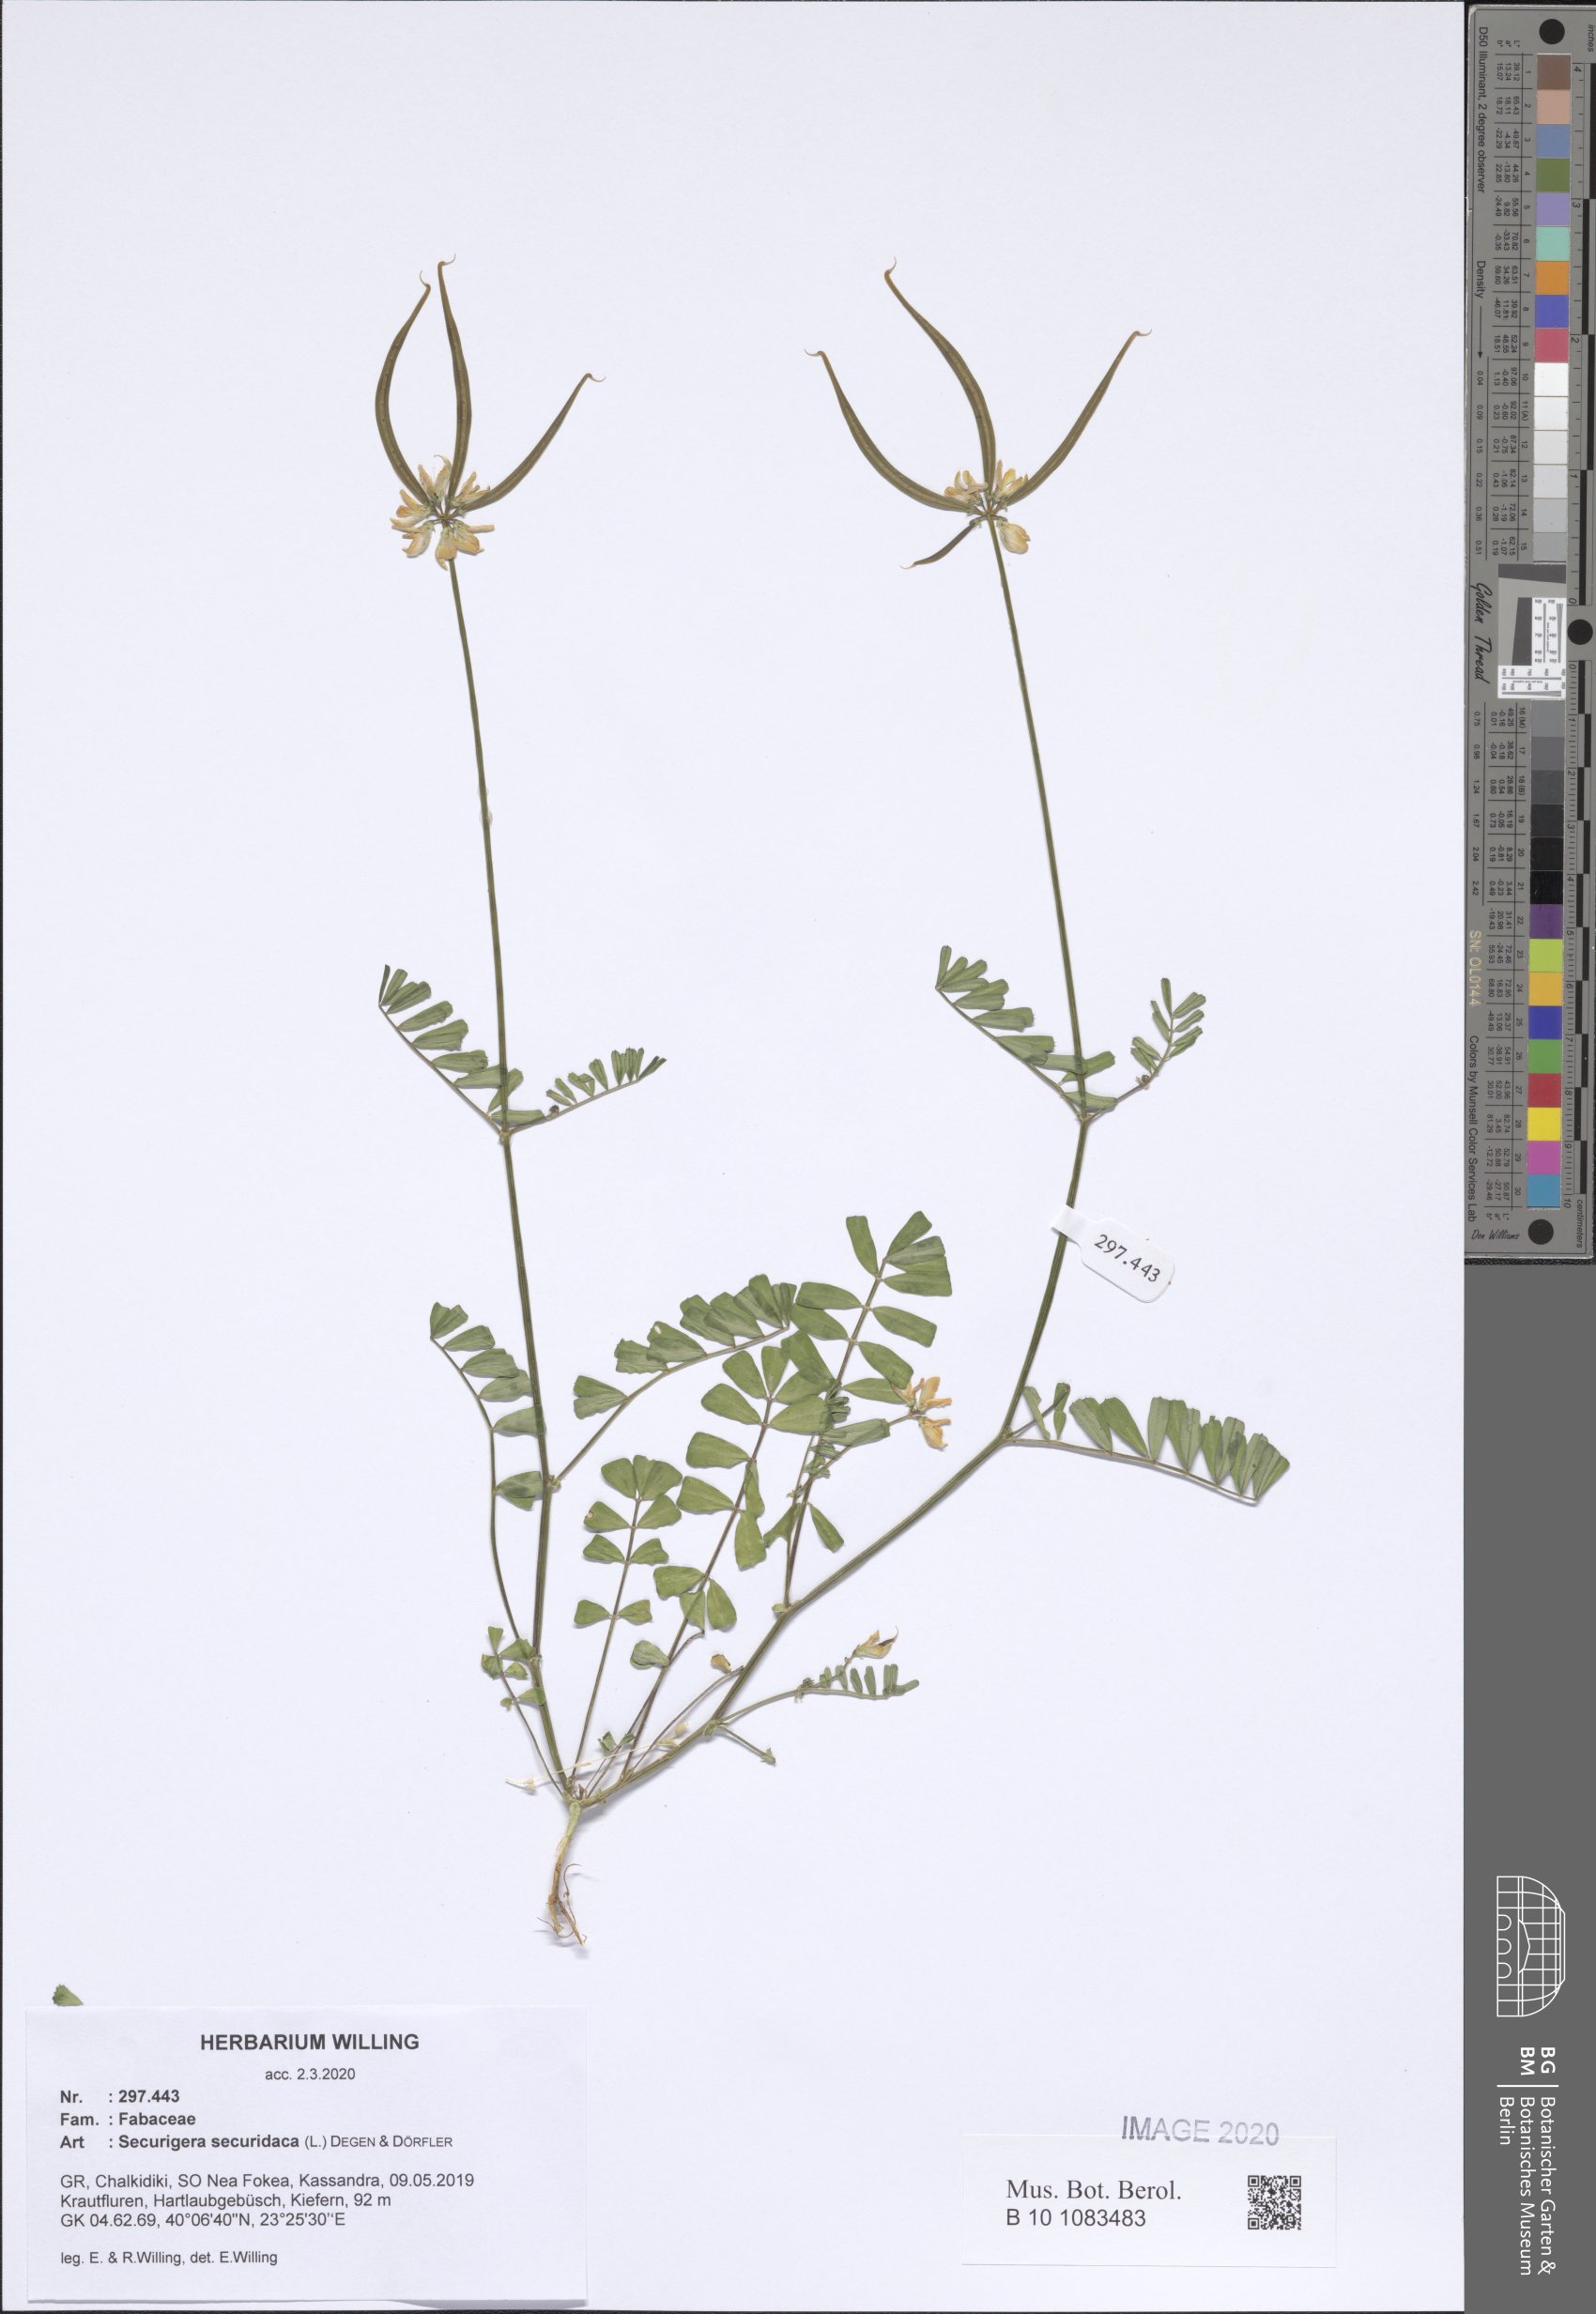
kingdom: Plantae
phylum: Tracheophyta
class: Magnoliopsida
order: Fabales
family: Fabaceae
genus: Coronilla
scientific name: Coronilla securidaca
